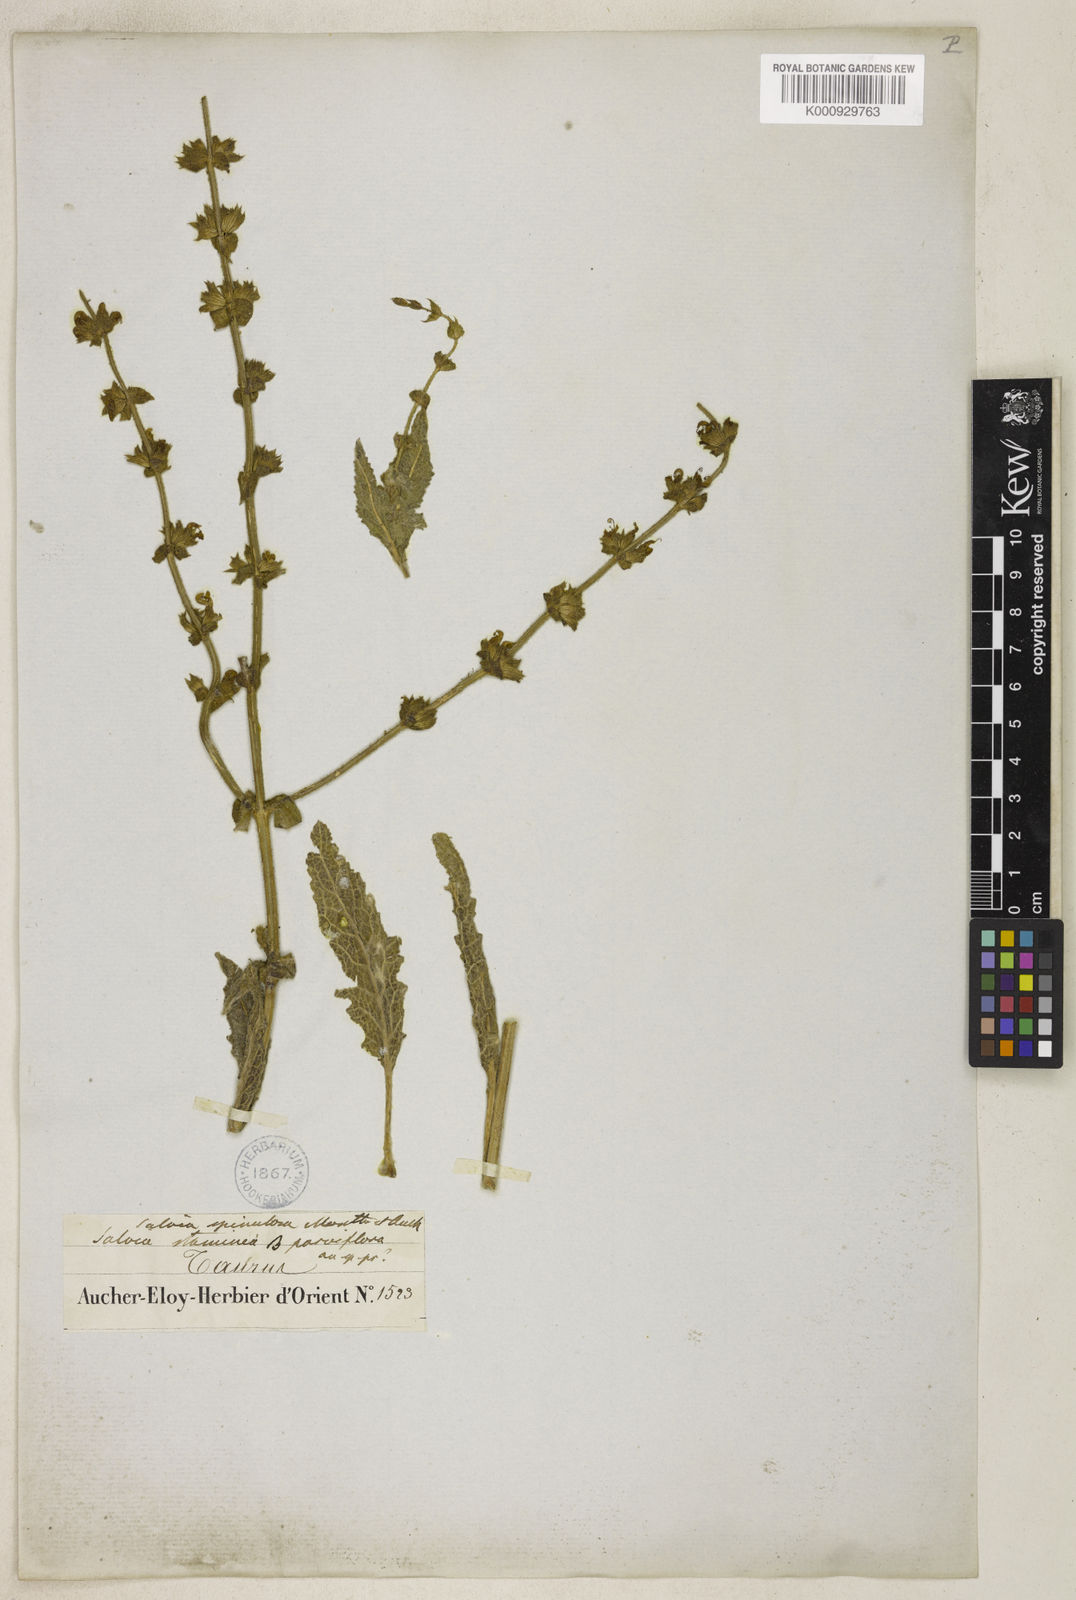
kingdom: Plantae
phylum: Tracheophyta
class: Magnoliopsida
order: Lamiales
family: Lamiaceae
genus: Salvia
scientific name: Salvia frigida
